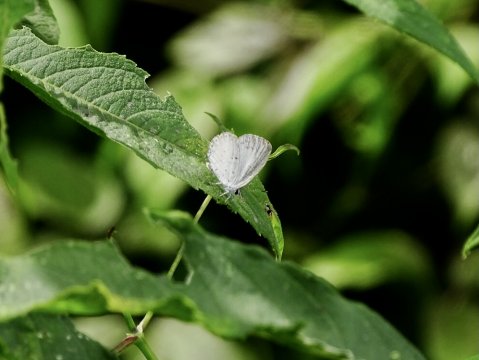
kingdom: Animalia
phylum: Arthropoda
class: Insecta
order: Lepidoptera
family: Lycaenidae
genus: Cyaniris
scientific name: Cyaniris neglecta
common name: Summer Azure
